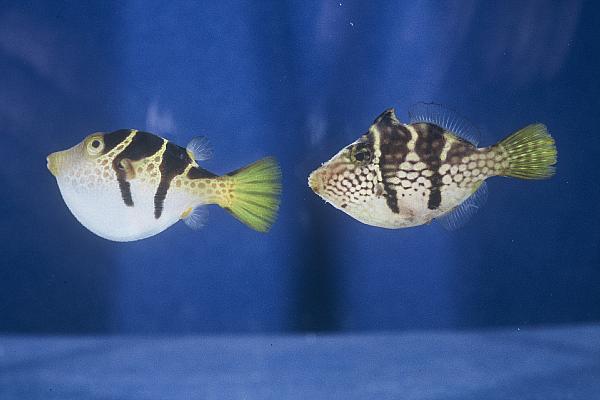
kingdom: Animalia
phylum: Chordata
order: Tetraodontiformes
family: Tetraodontidae
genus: Canthigaster
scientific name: Canthigaster valentini
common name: Banded toby
